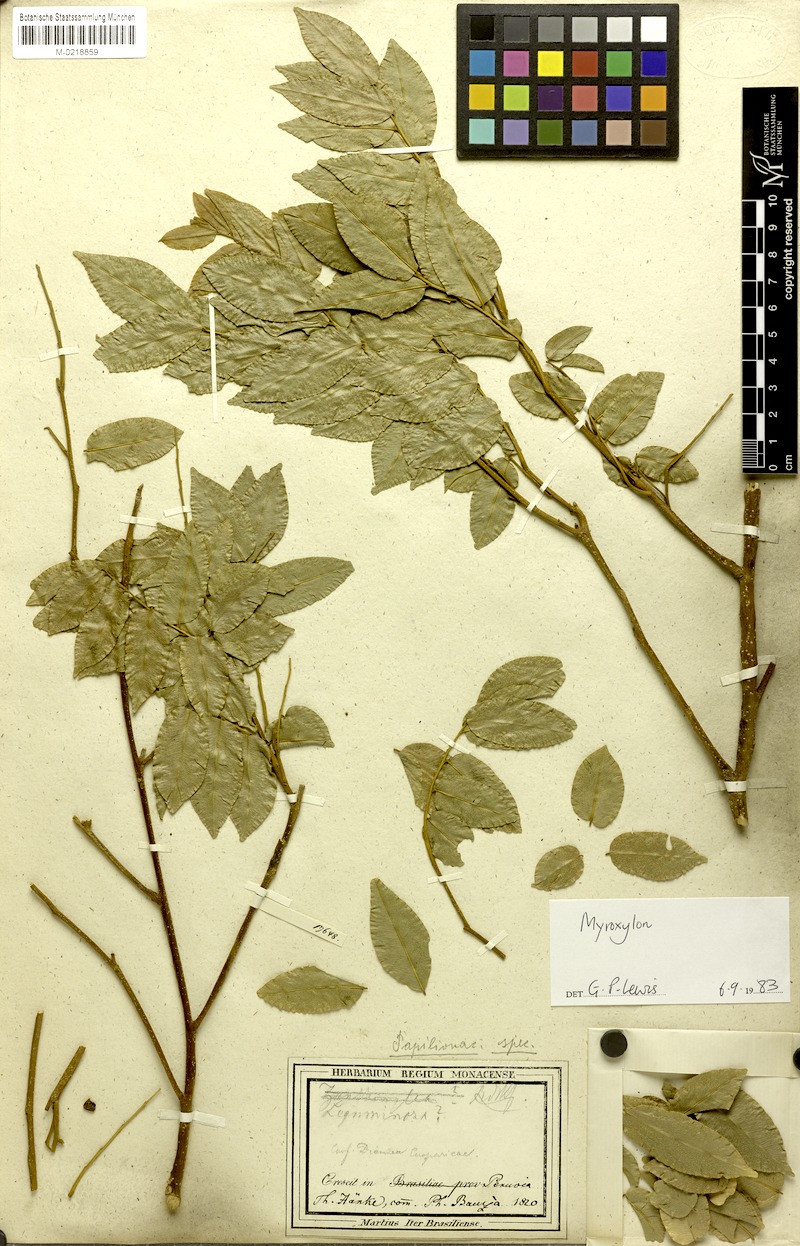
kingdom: Plantae
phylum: Tracheophyta
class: Magnoliopsida
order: Fabales
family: Fabaceae
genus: Myroxylon
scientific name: Myroxylon
